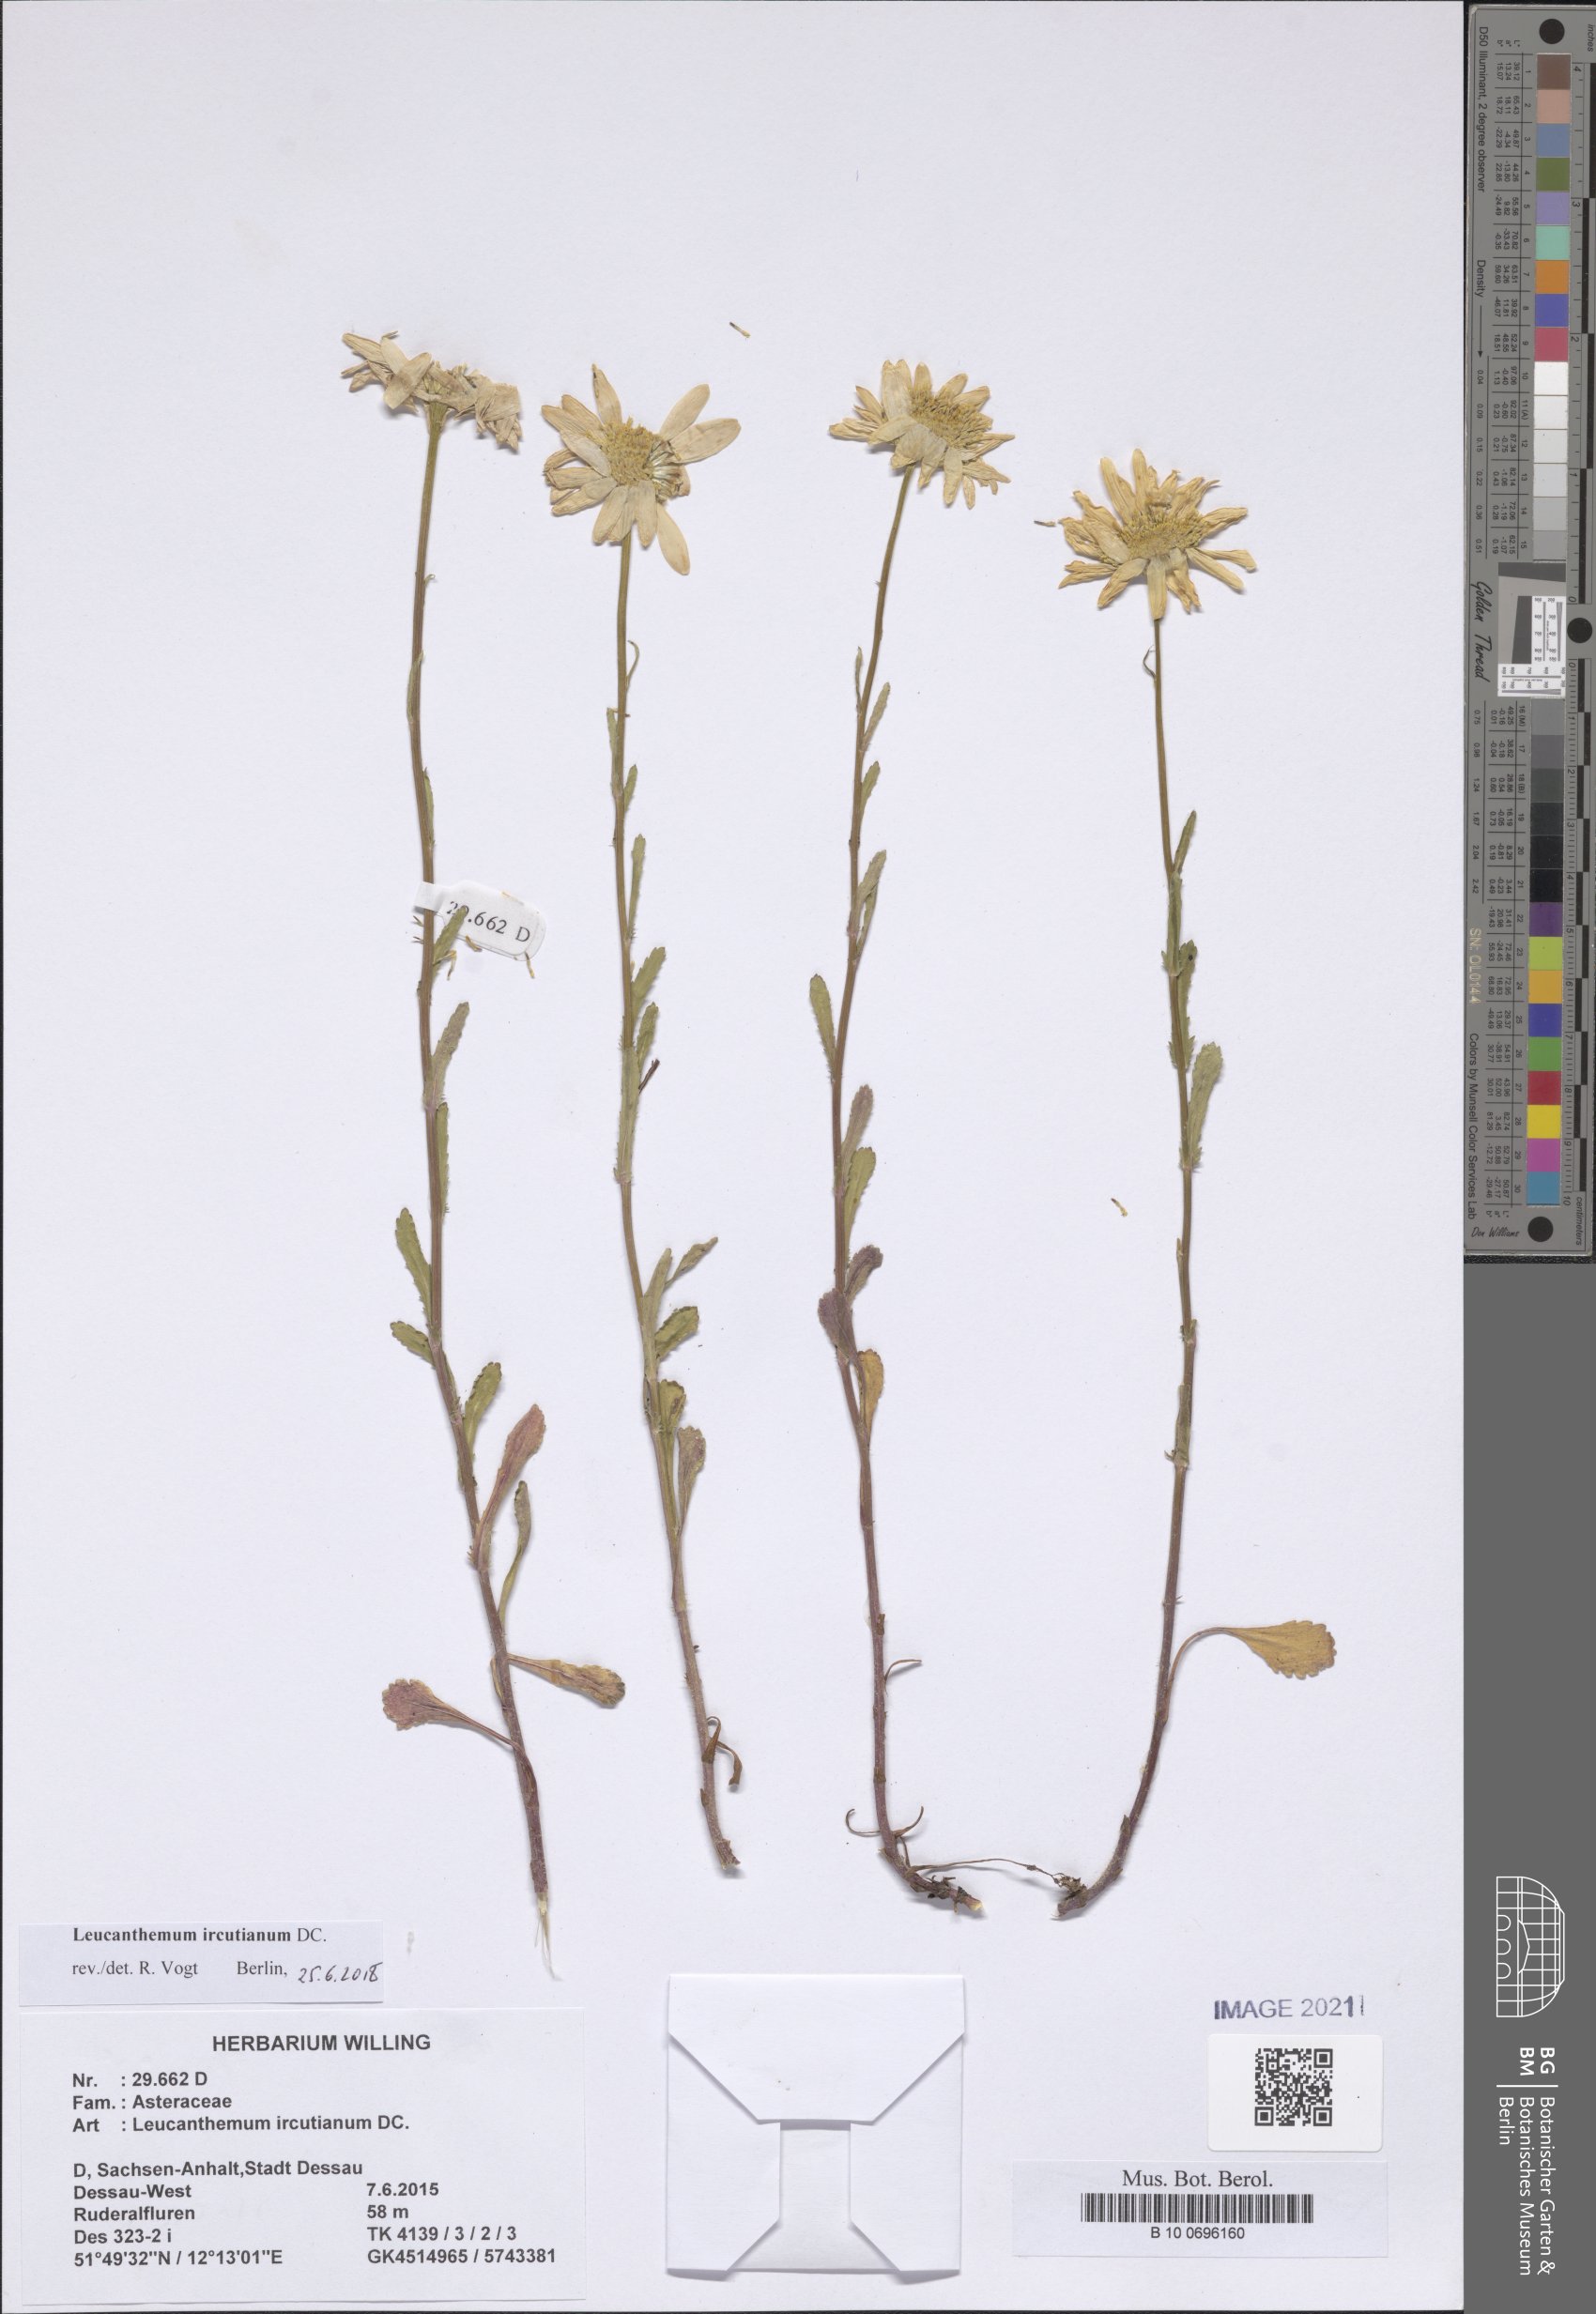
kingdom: Plantae
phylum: Tracheophyta
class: Magnoliopsida
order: Asterales
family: Asteraceae
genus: Leucanthemum
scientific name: Leucanthemum ircutianum
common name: Daisy
